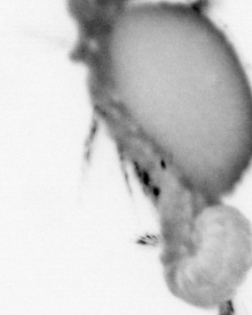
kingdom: Animalia
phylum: Annelida
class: Polychaeta
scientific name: Polychaeta
